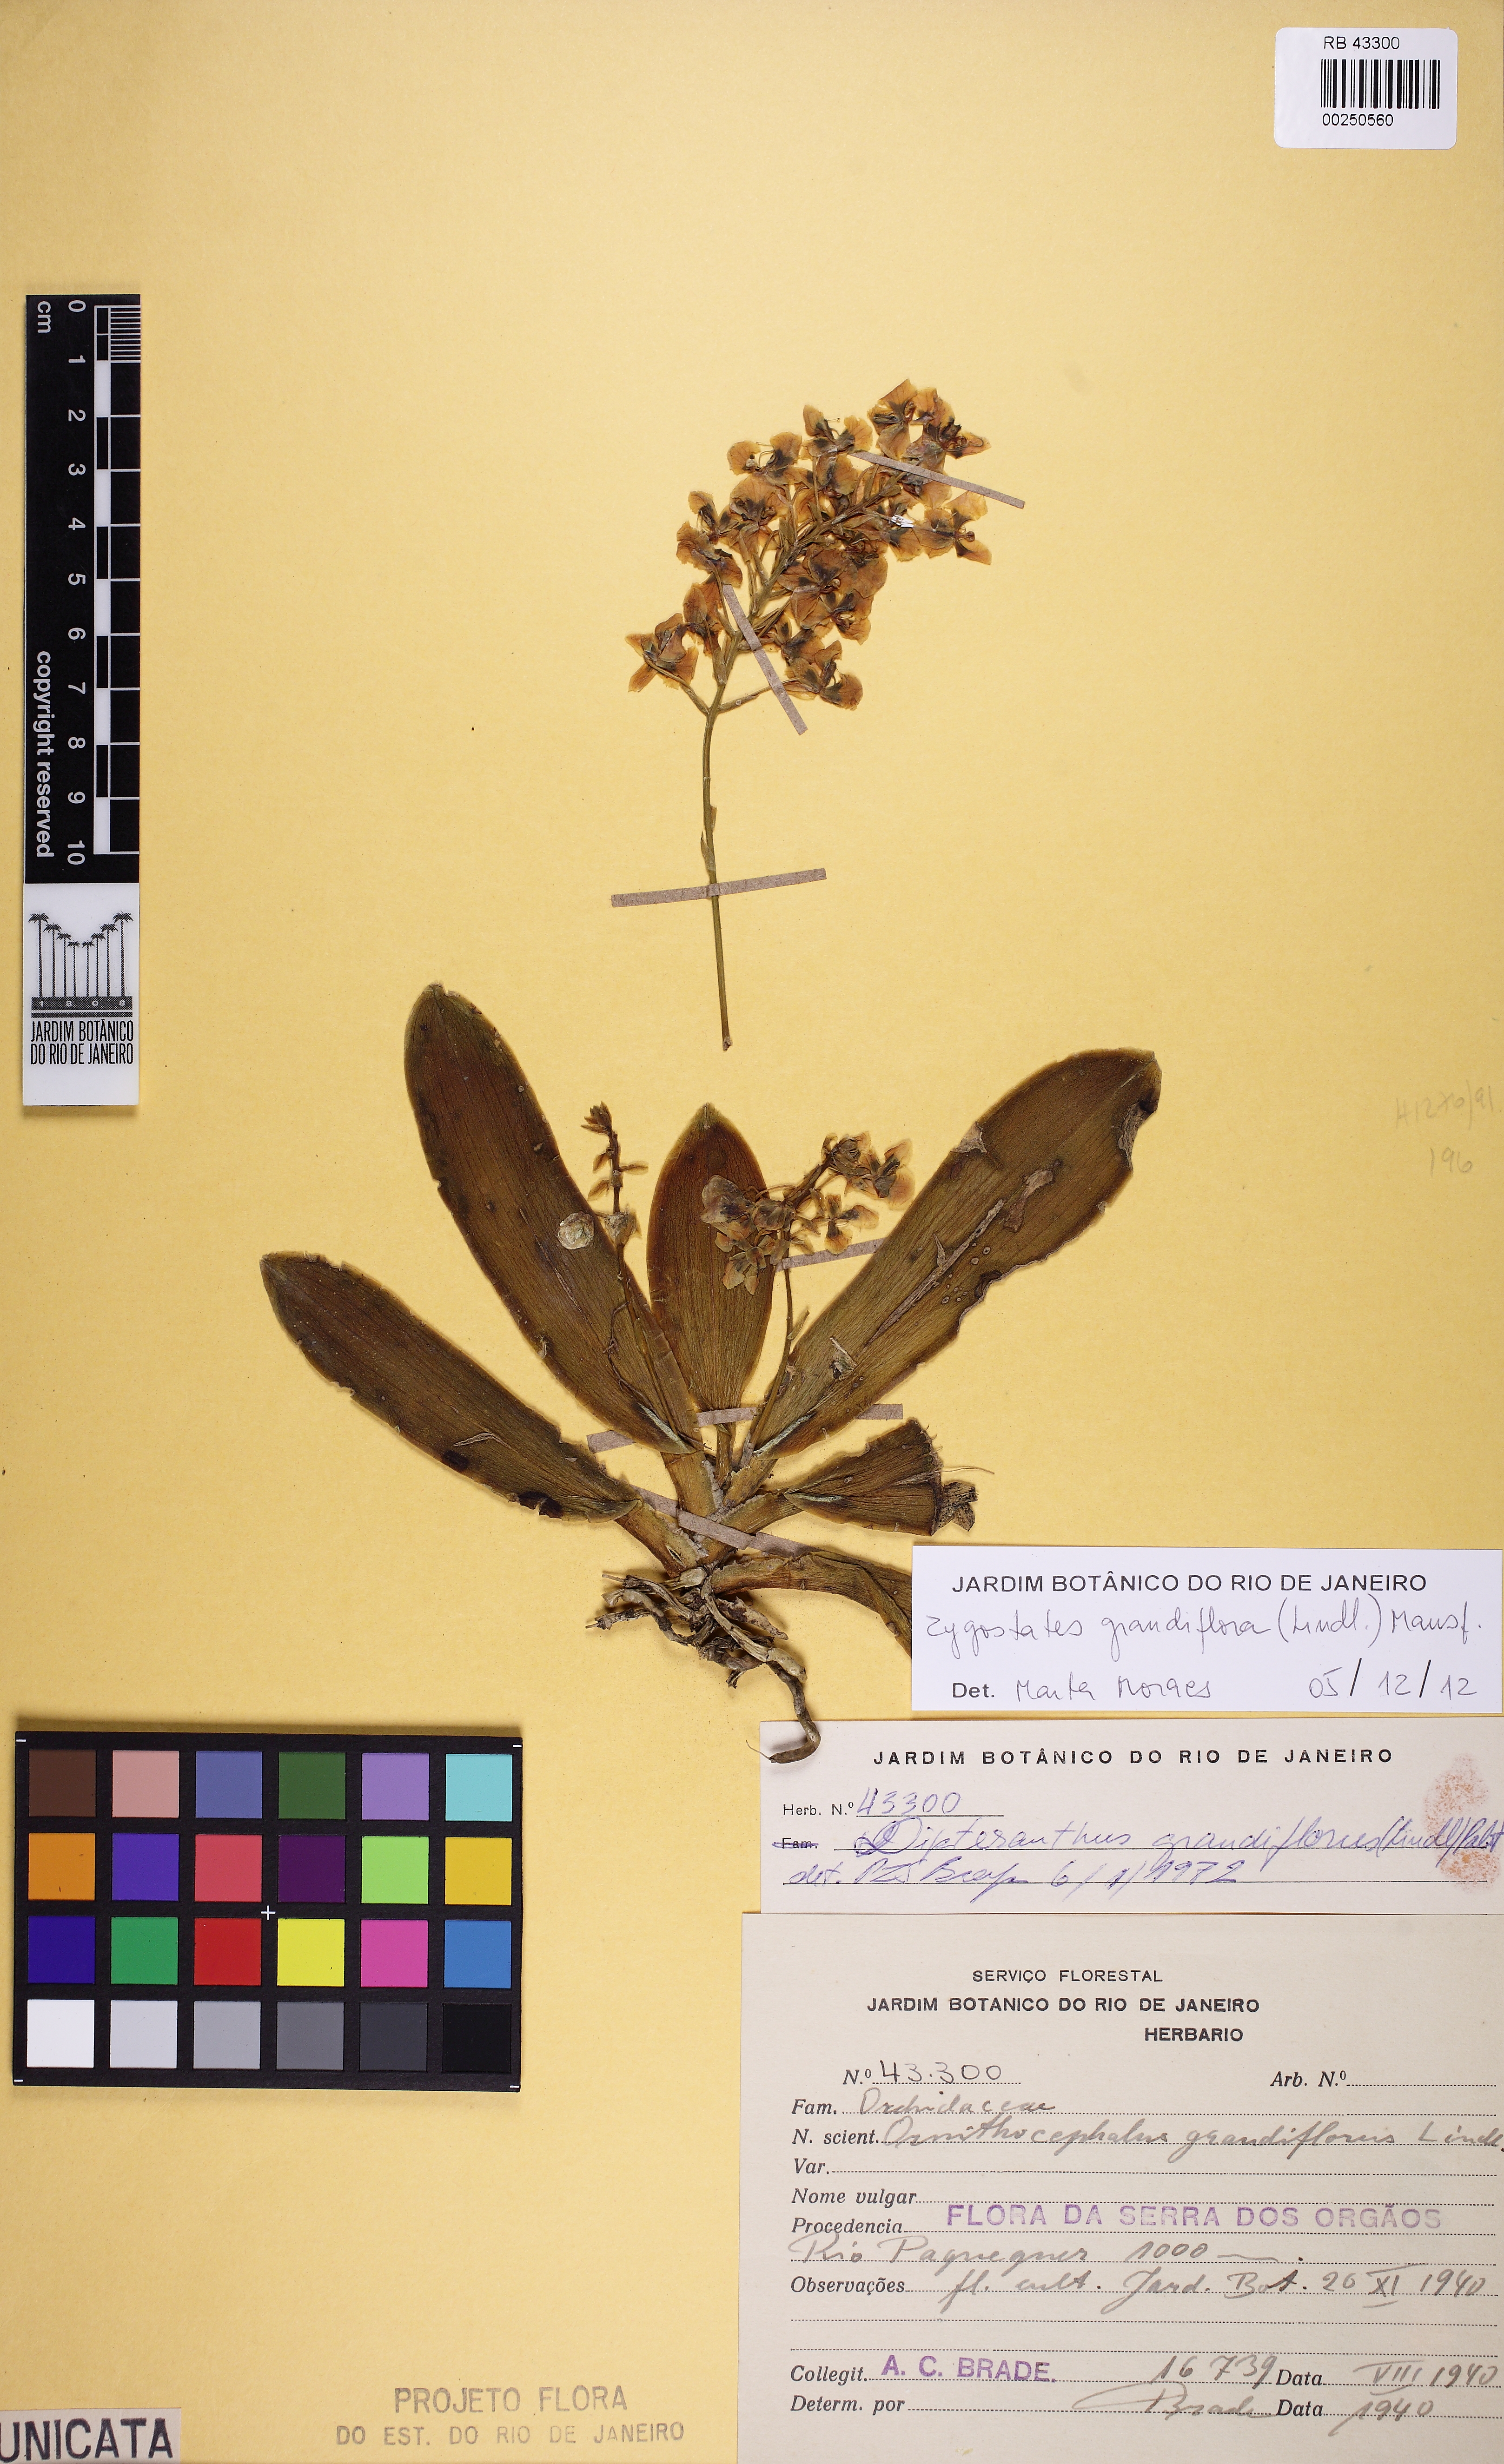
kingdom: Plantae
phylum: Tracheophyta
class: Liliopsida
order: Asparagales
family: Orchidaceae
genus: Zygostates
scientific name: Zygostates grandiflora
